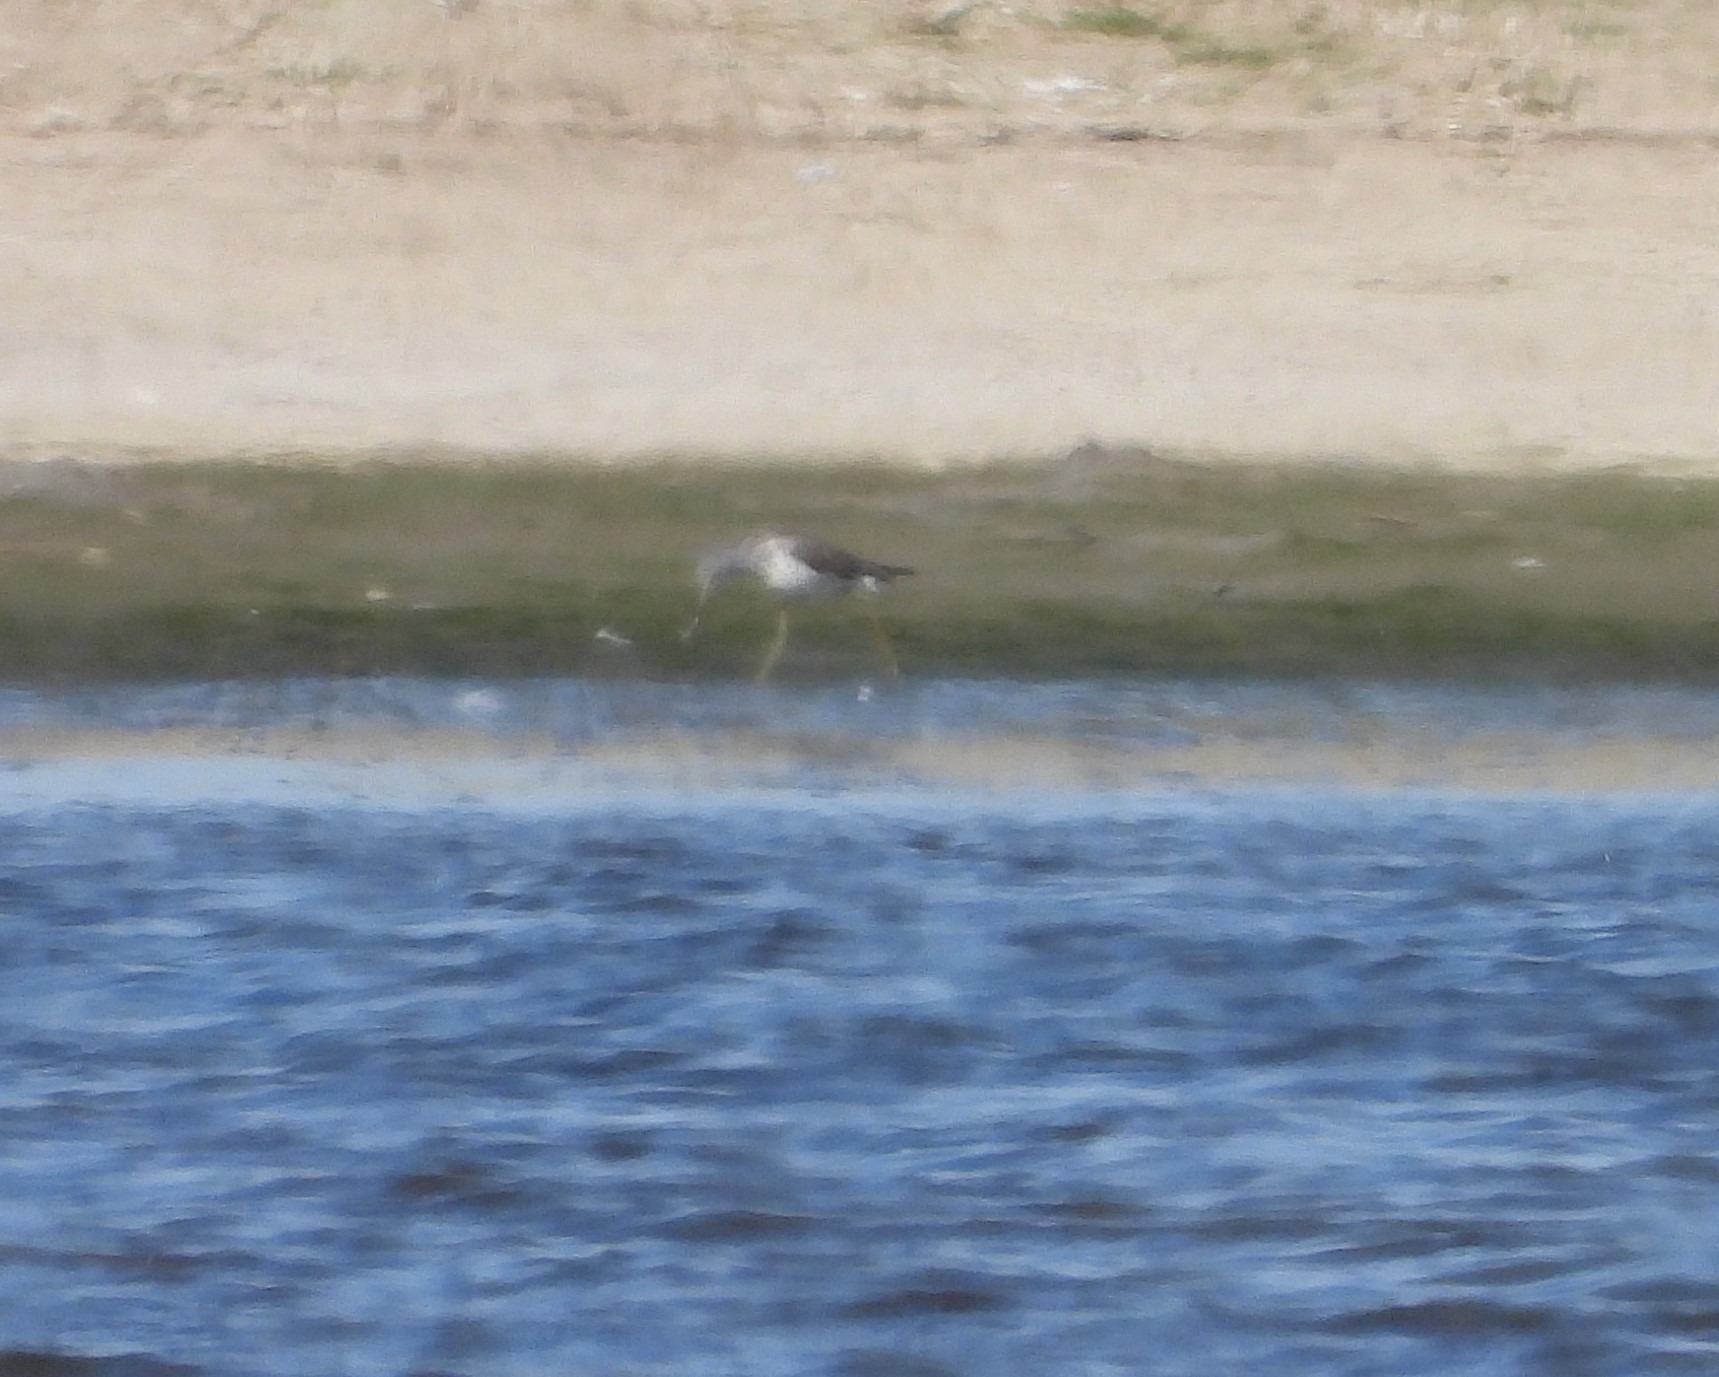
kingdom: Animalia
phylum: Chordata
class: Aves
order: Charadriiformes
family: Scolopacidae
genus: Tringa
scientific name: Tringa nebularia
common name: Hvidklire
